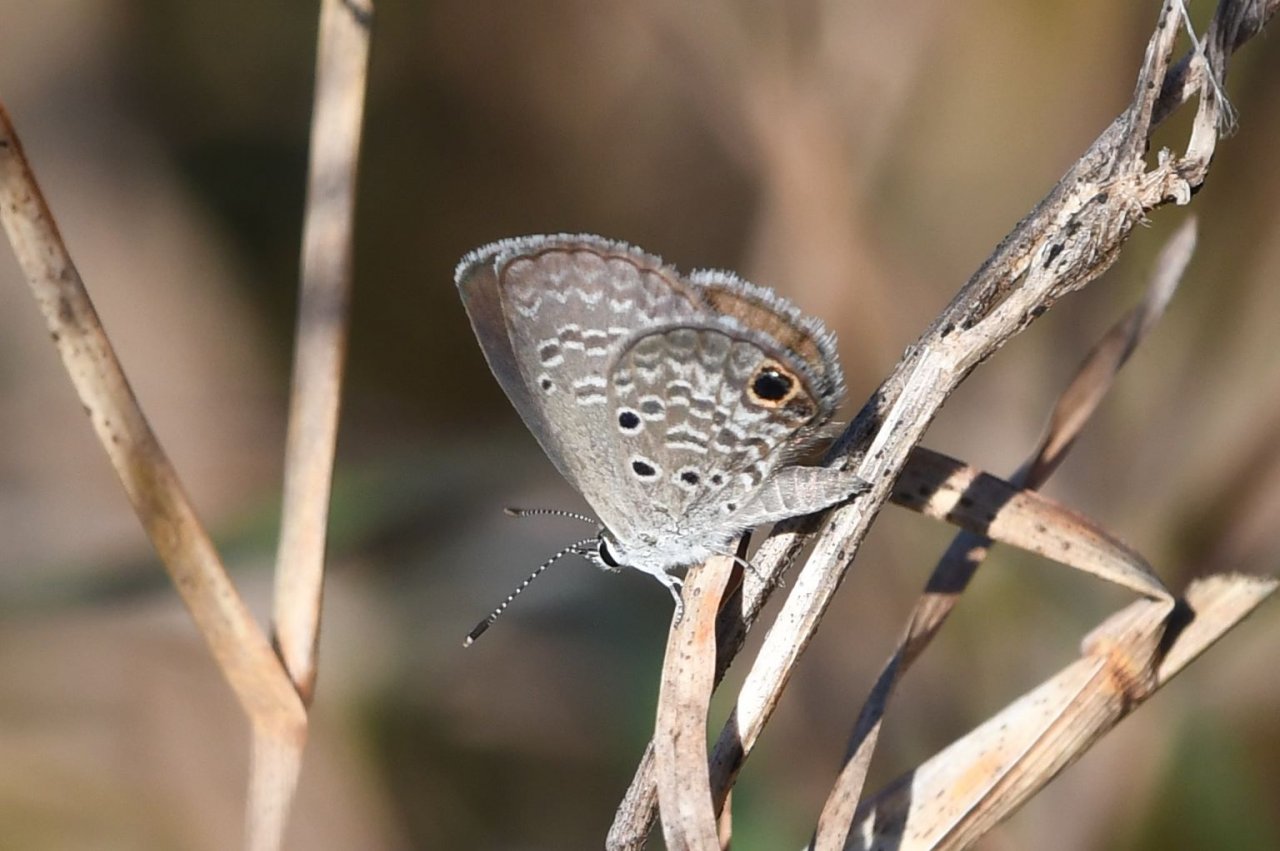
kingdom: Animalia
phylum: Arthropoda
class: Insecta
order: Lepidoptera
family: Lycaenidae
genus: Hemiargus
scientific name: Hemiargus ceraunus
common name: Ceraunus Blue
